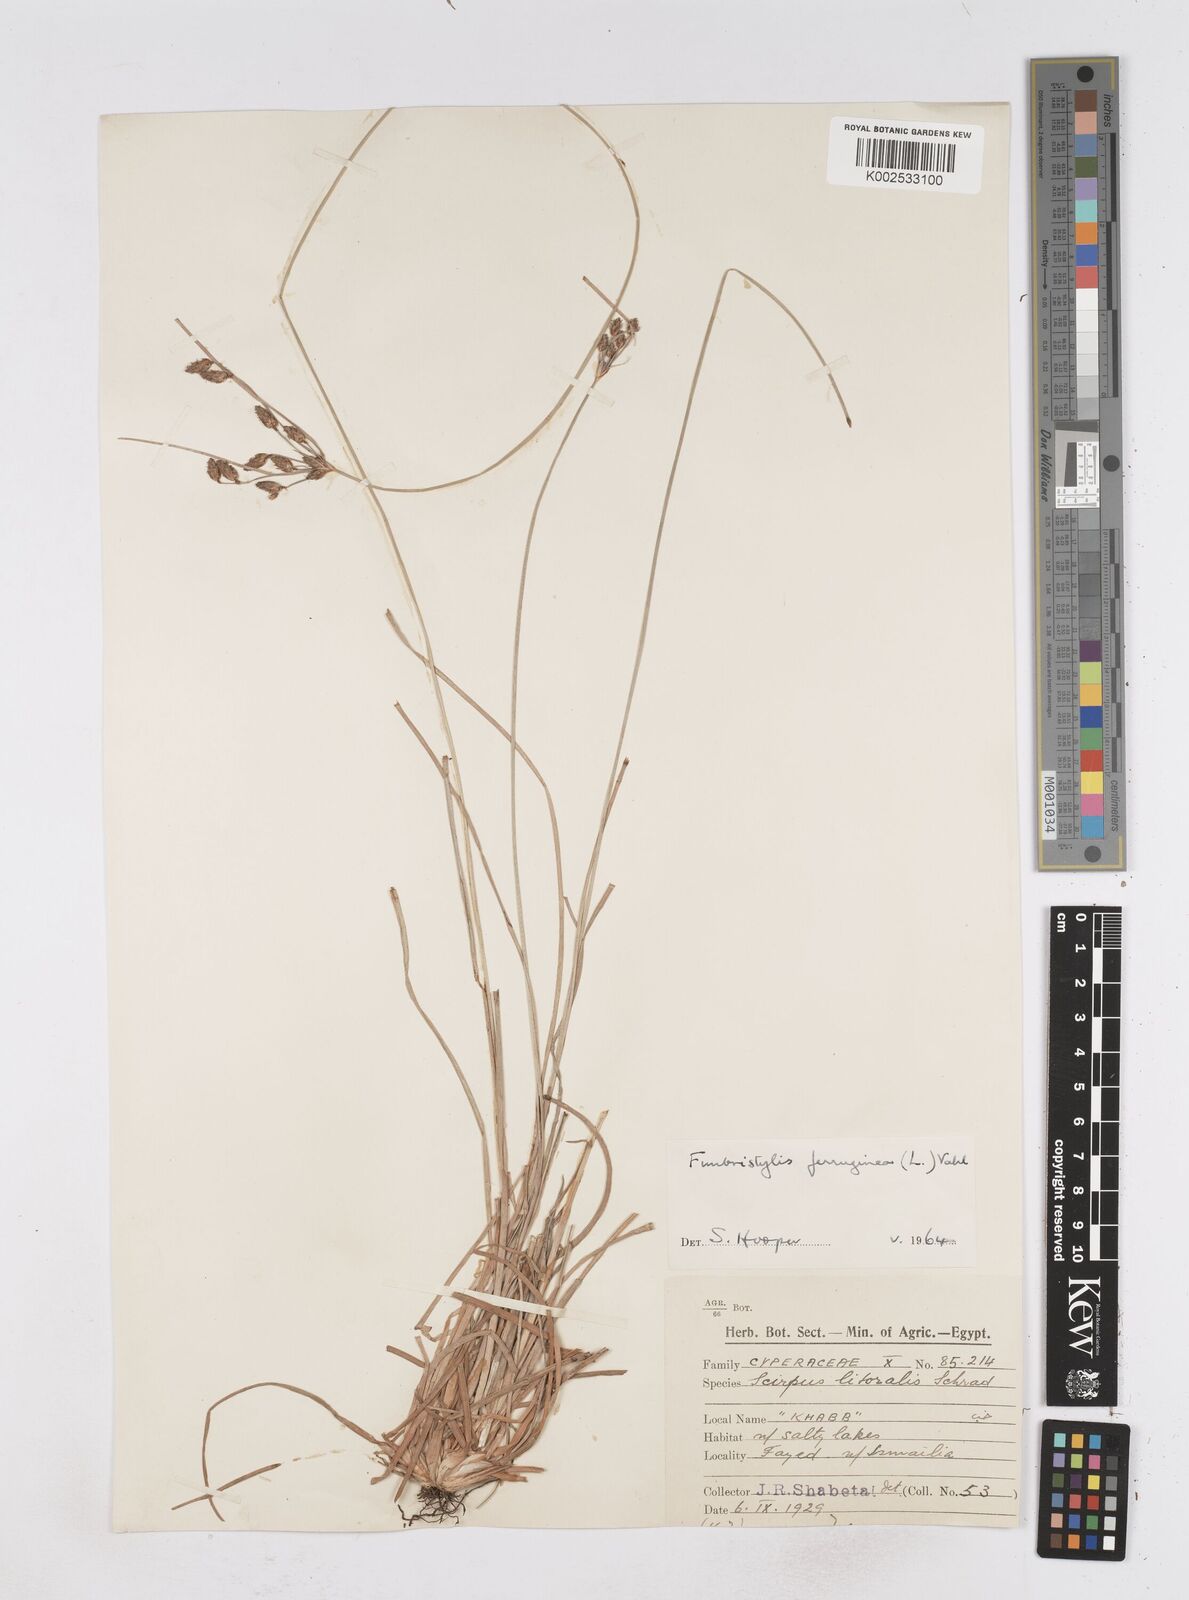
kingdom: Plantae
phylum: Tracheophyta
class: Liliopsida
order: Poales
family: Cyperaceae
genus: Fimbristylis
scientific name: Fimbristylis ferruginea
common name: West indian fimbry
